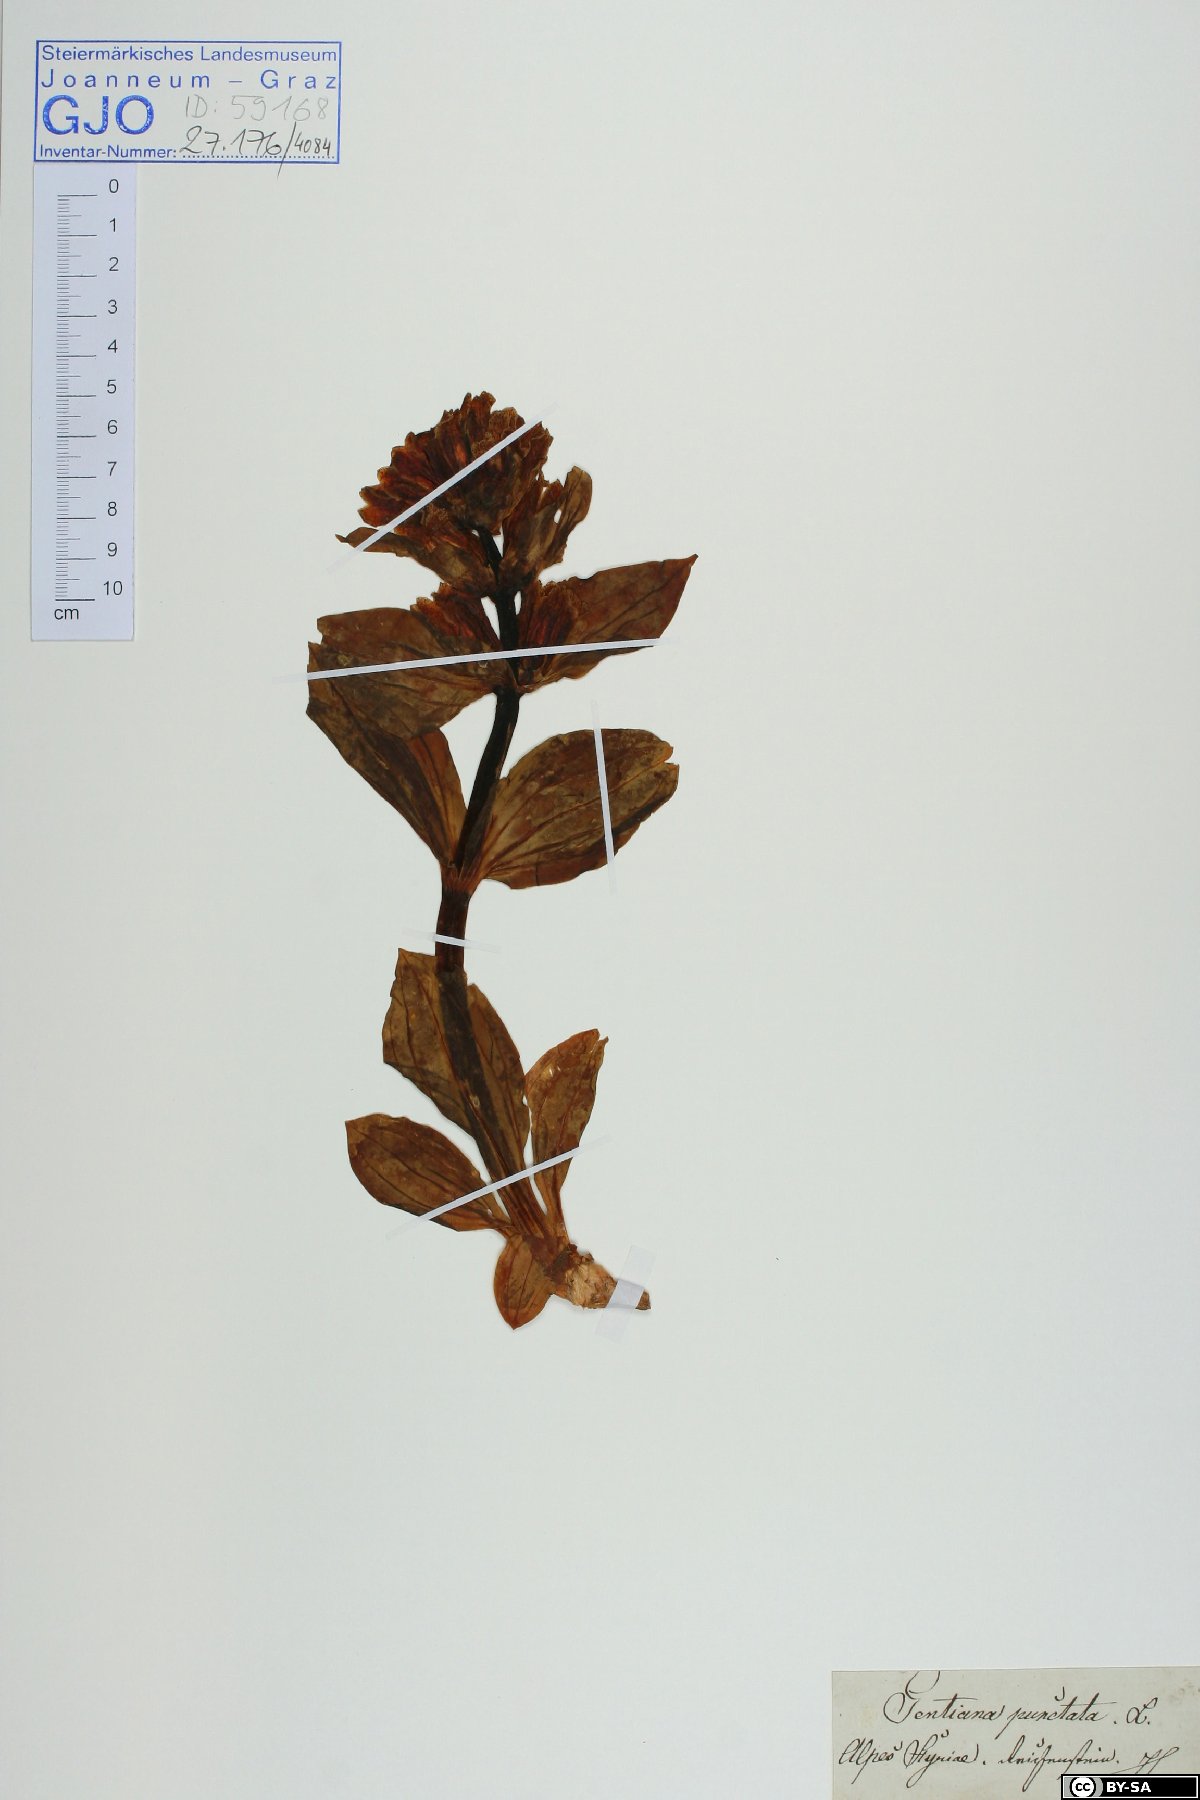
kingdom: Plantae
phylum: Tracheophyta
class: Magnoliopsida
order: Gentianales
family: Gentianaceae
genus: Gentiana
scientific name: Gentiana punctata
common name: Spotted gentian
